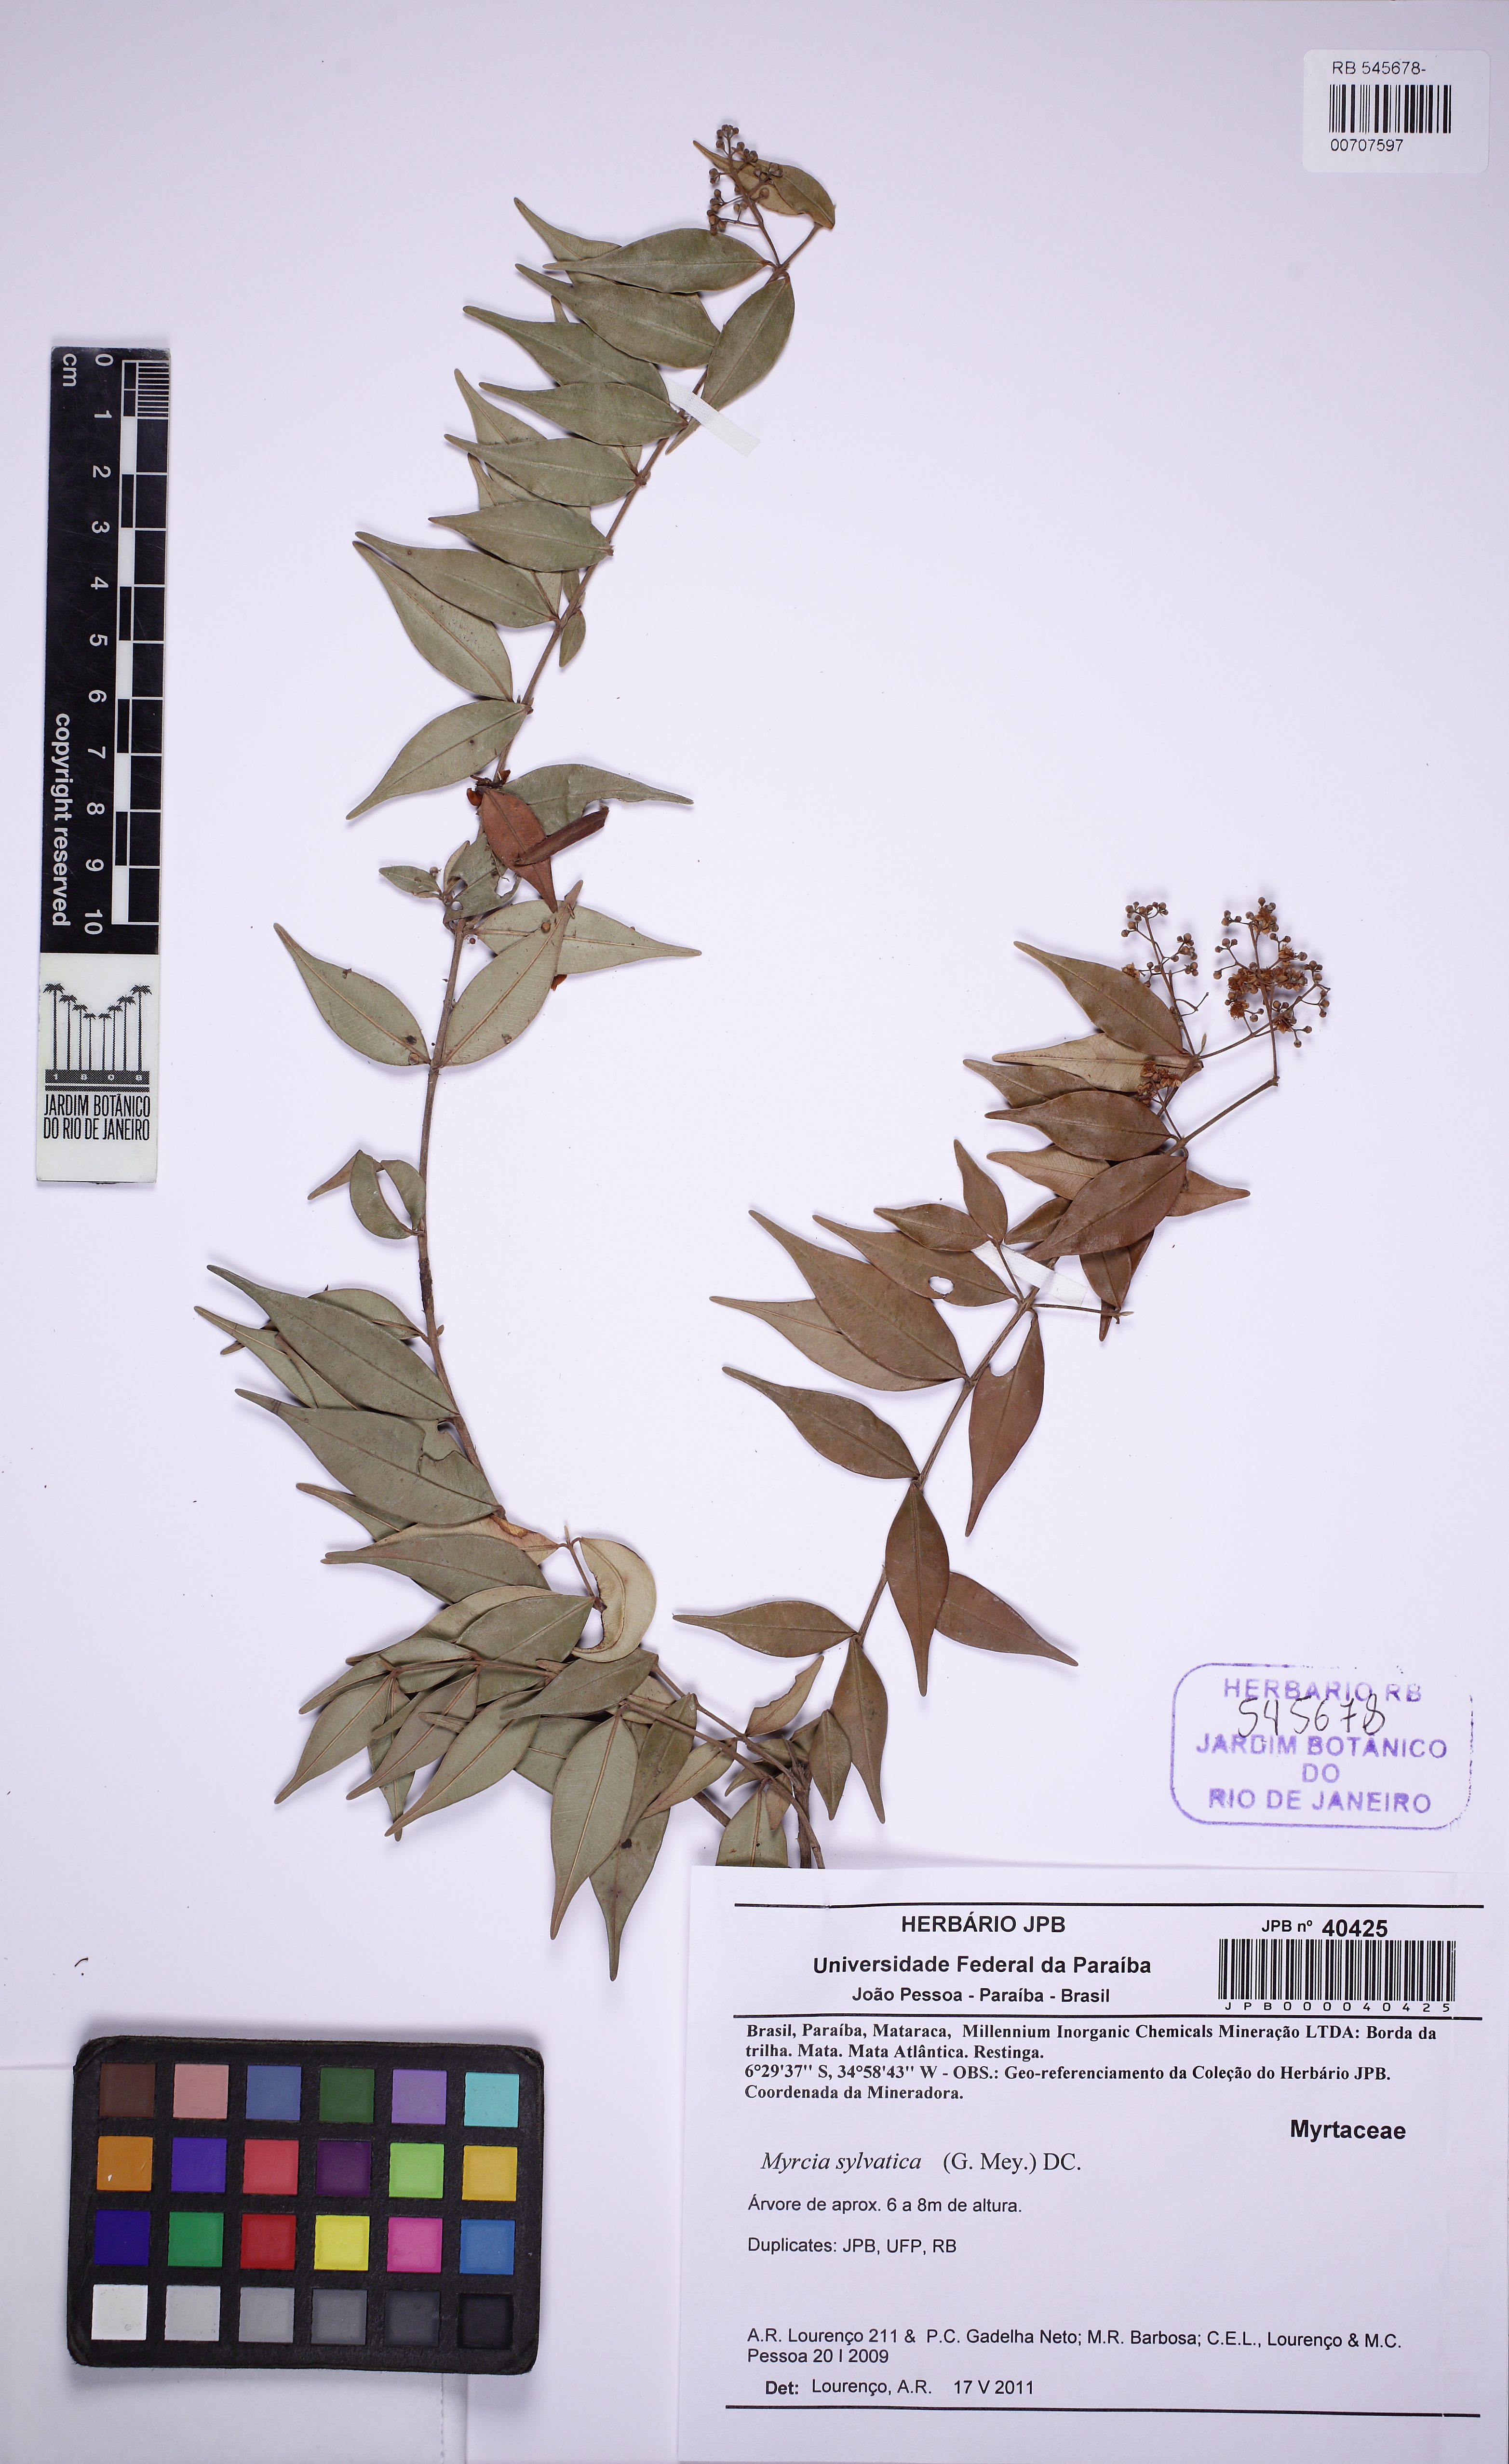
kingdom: Plantae
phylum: Tracheophyta
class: Magnoliopsida
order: Myrtales
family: Myrtaceae
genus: Myrcia
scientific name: Myrcia sylvatica
